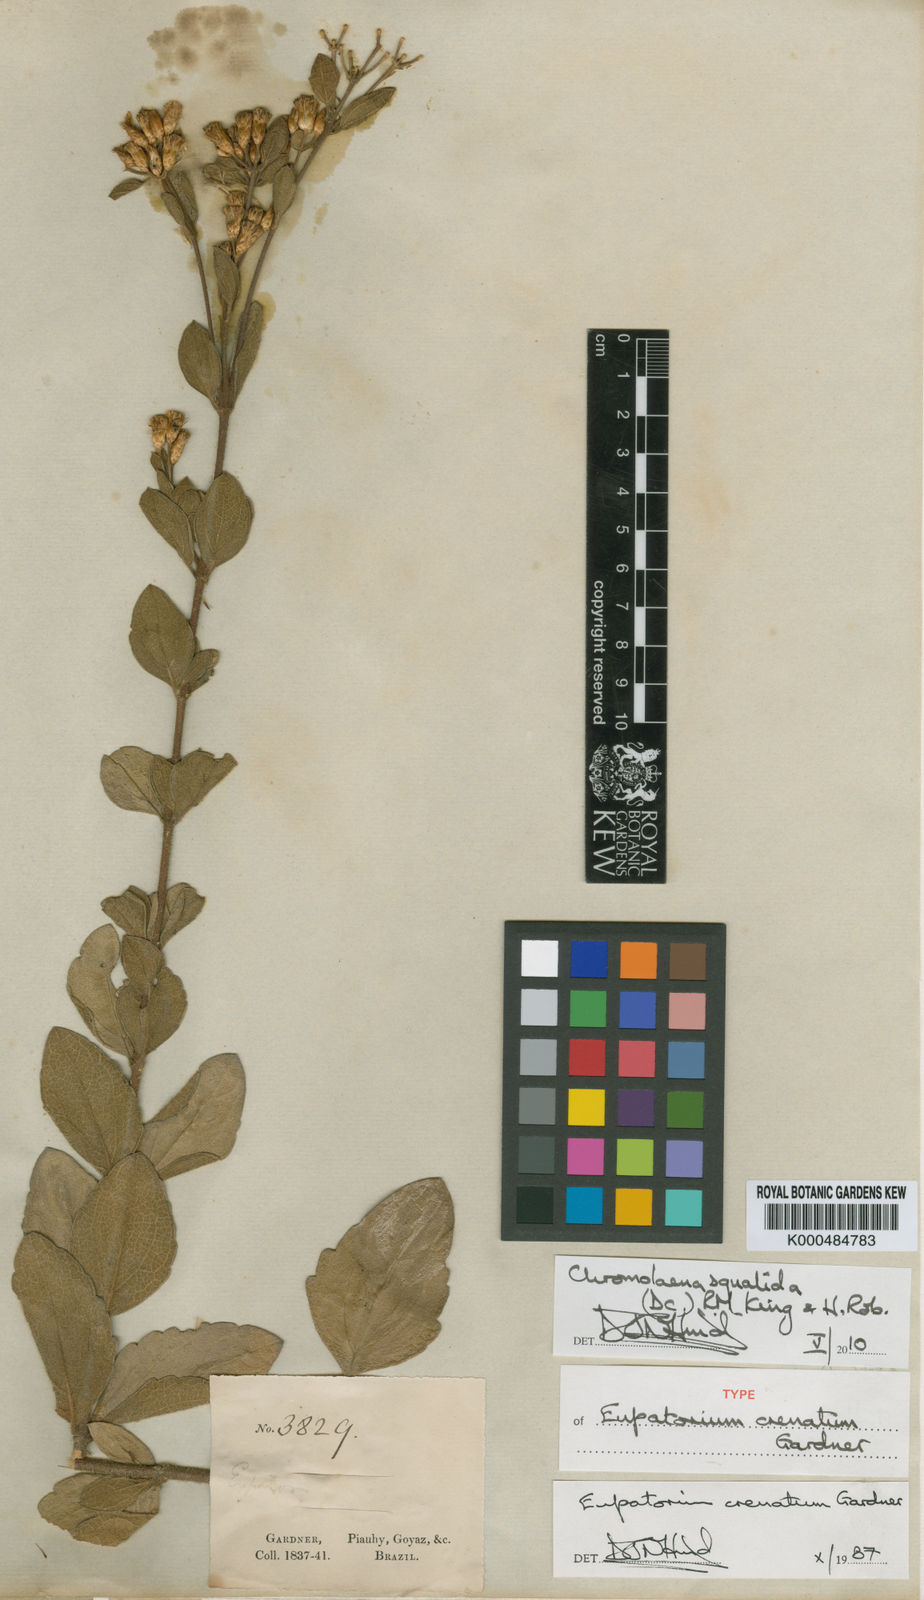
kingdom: Plantae
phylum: Tracheophyta
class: Magnoliopsida
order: Asterales
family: Asteraceae
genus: Chromolaena
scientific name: Chromolaena squalida
